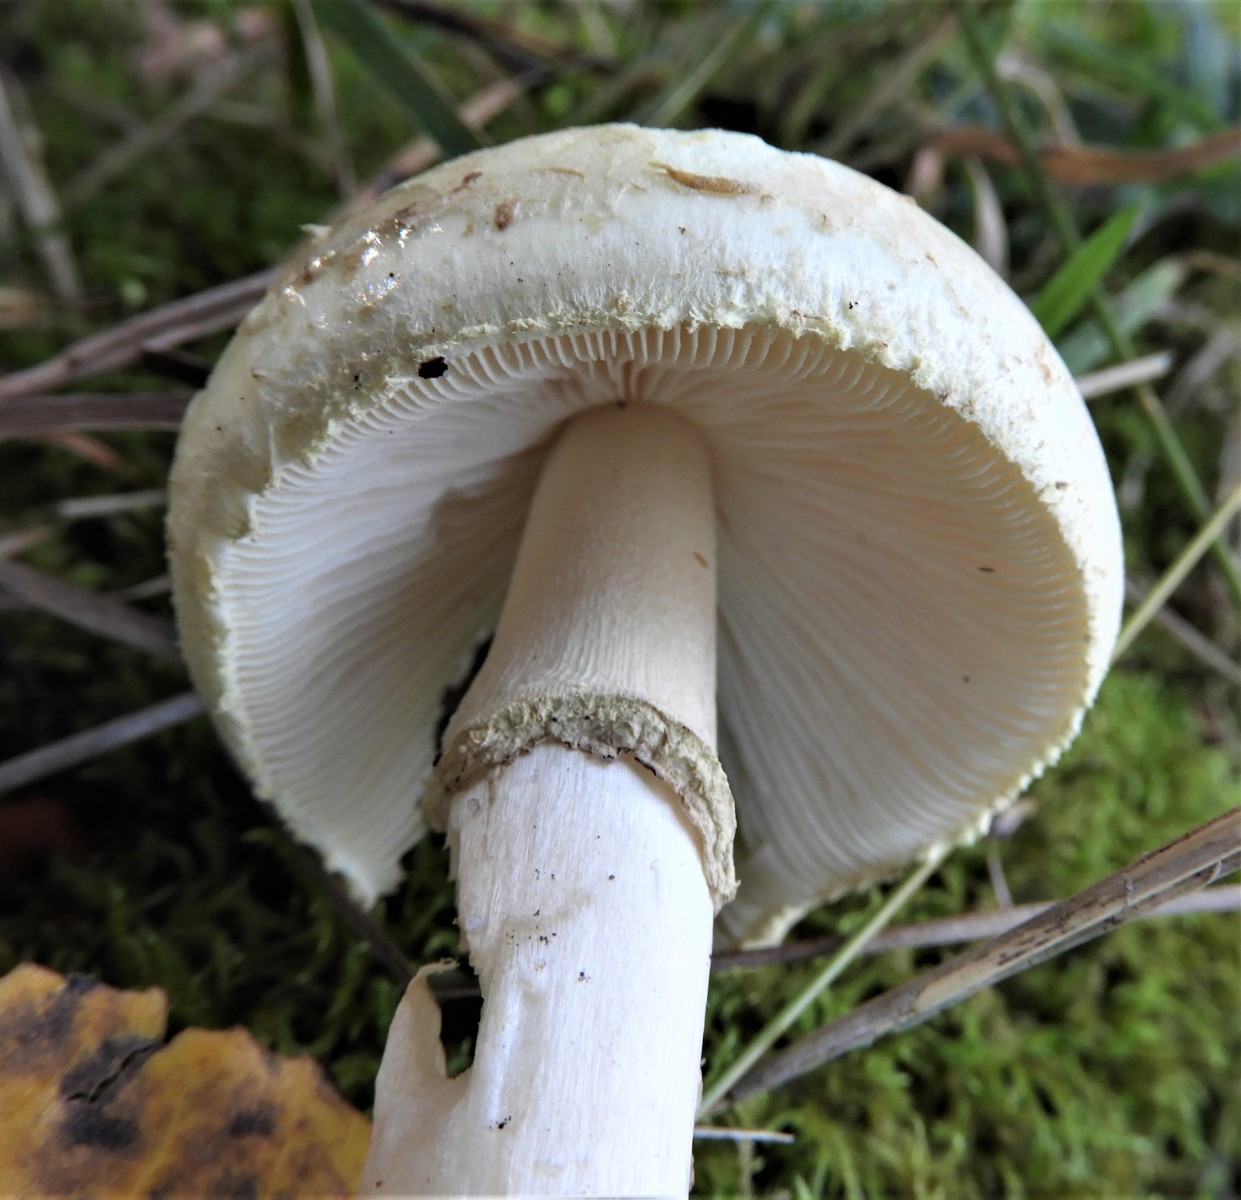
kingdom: Fungi
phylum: Basidiomycota
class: Agaricomycetes
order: Agaricales
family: Amanitaceae
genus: Amanita
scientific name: Amanita citrina
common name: kugleknoldet fluesvamp
